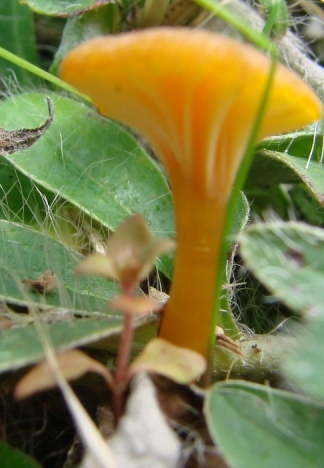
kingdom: Fungi
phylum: Basidiomycota
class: Agaricomycetes
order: Agaricales
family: Hygrophoraceae
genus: Hygrocybe
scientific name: Hygrocybe turunda
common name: sortskællet vokshat
